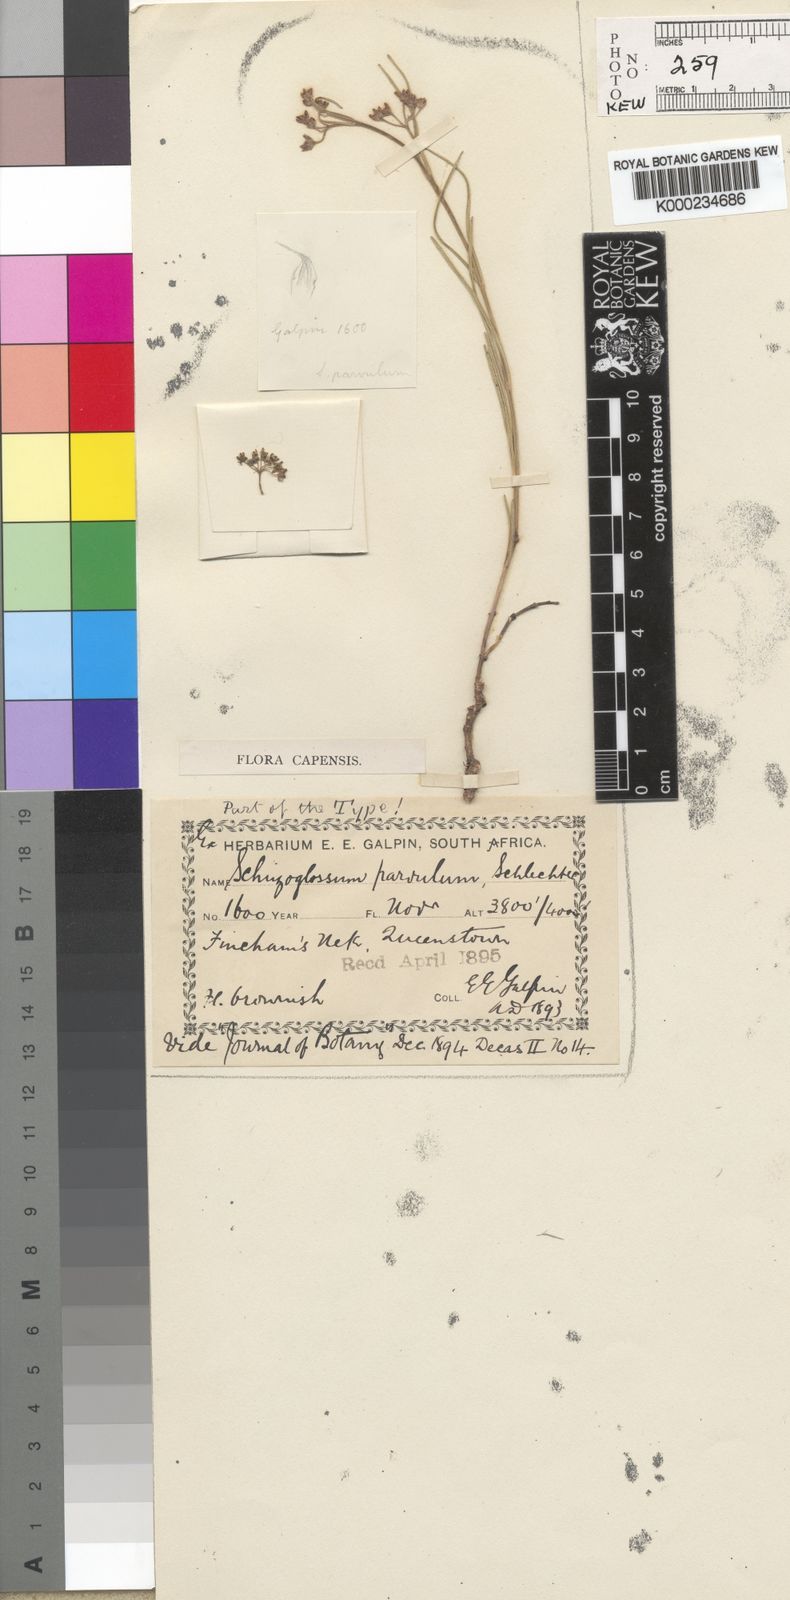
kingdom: Plantae
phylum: Tracheophyta
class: Magnoliopsida
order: Gentianales
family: Apocynaceae
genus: Aspidoglossum
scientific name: Aspidoglossum gracile
